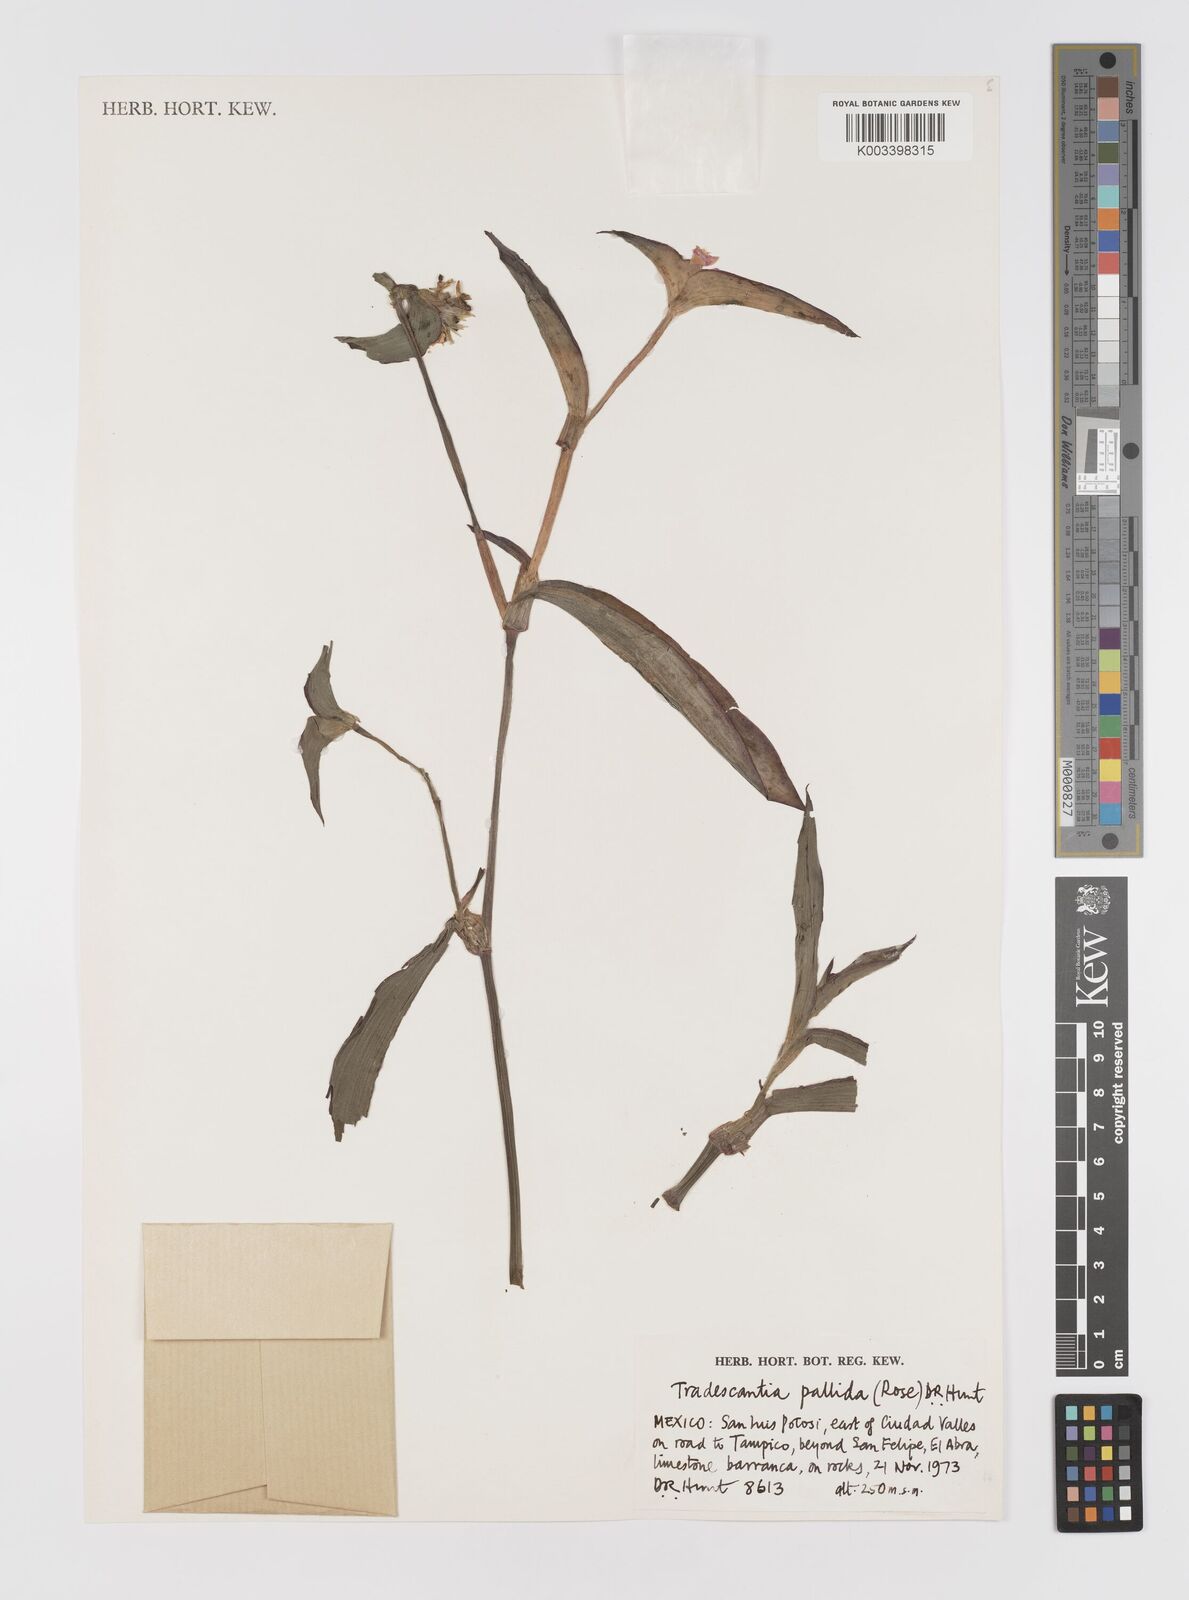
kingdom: Plantae
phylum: Tracheophyta
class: Liliopsida
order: Commelinales
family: Commelinaceae
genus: Tradescantia
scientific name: Tradescantia pallida
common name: Purpleheart
